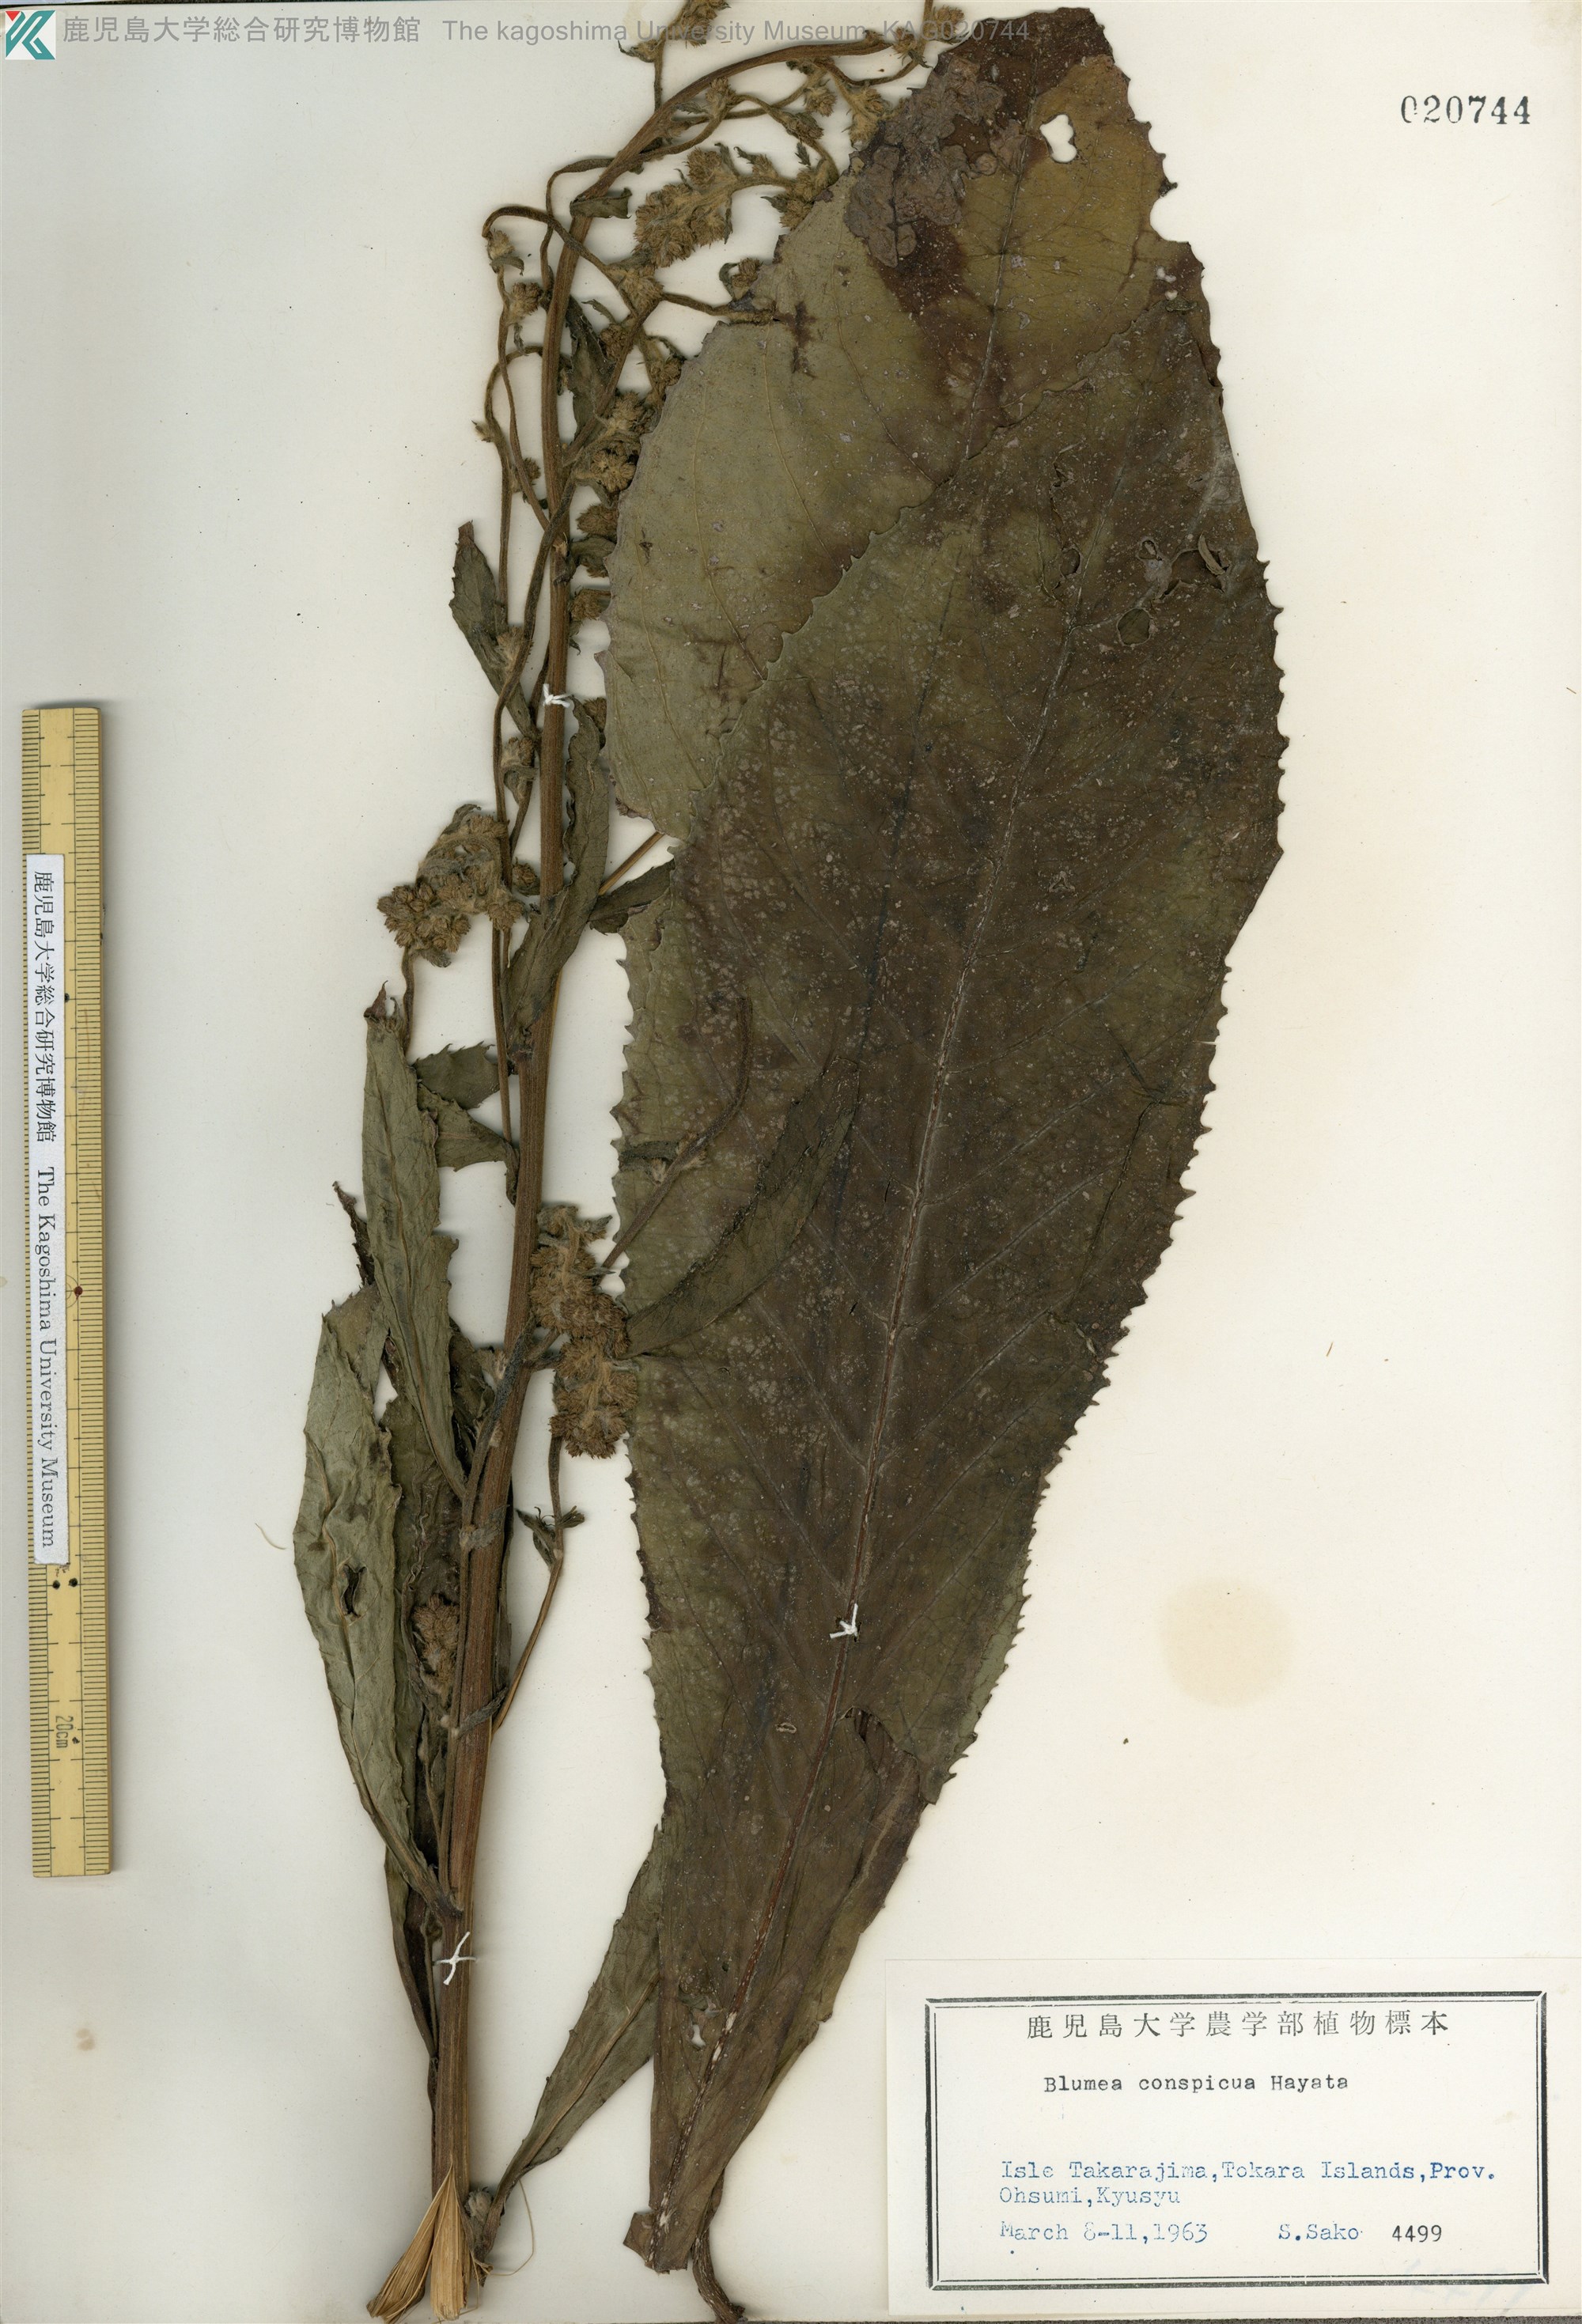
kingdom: Plantae
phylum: Tracheophyta
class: Magnoliopsida
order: Asterales
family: Asteraceae
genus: Blumea
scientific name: Blumea conspicua
